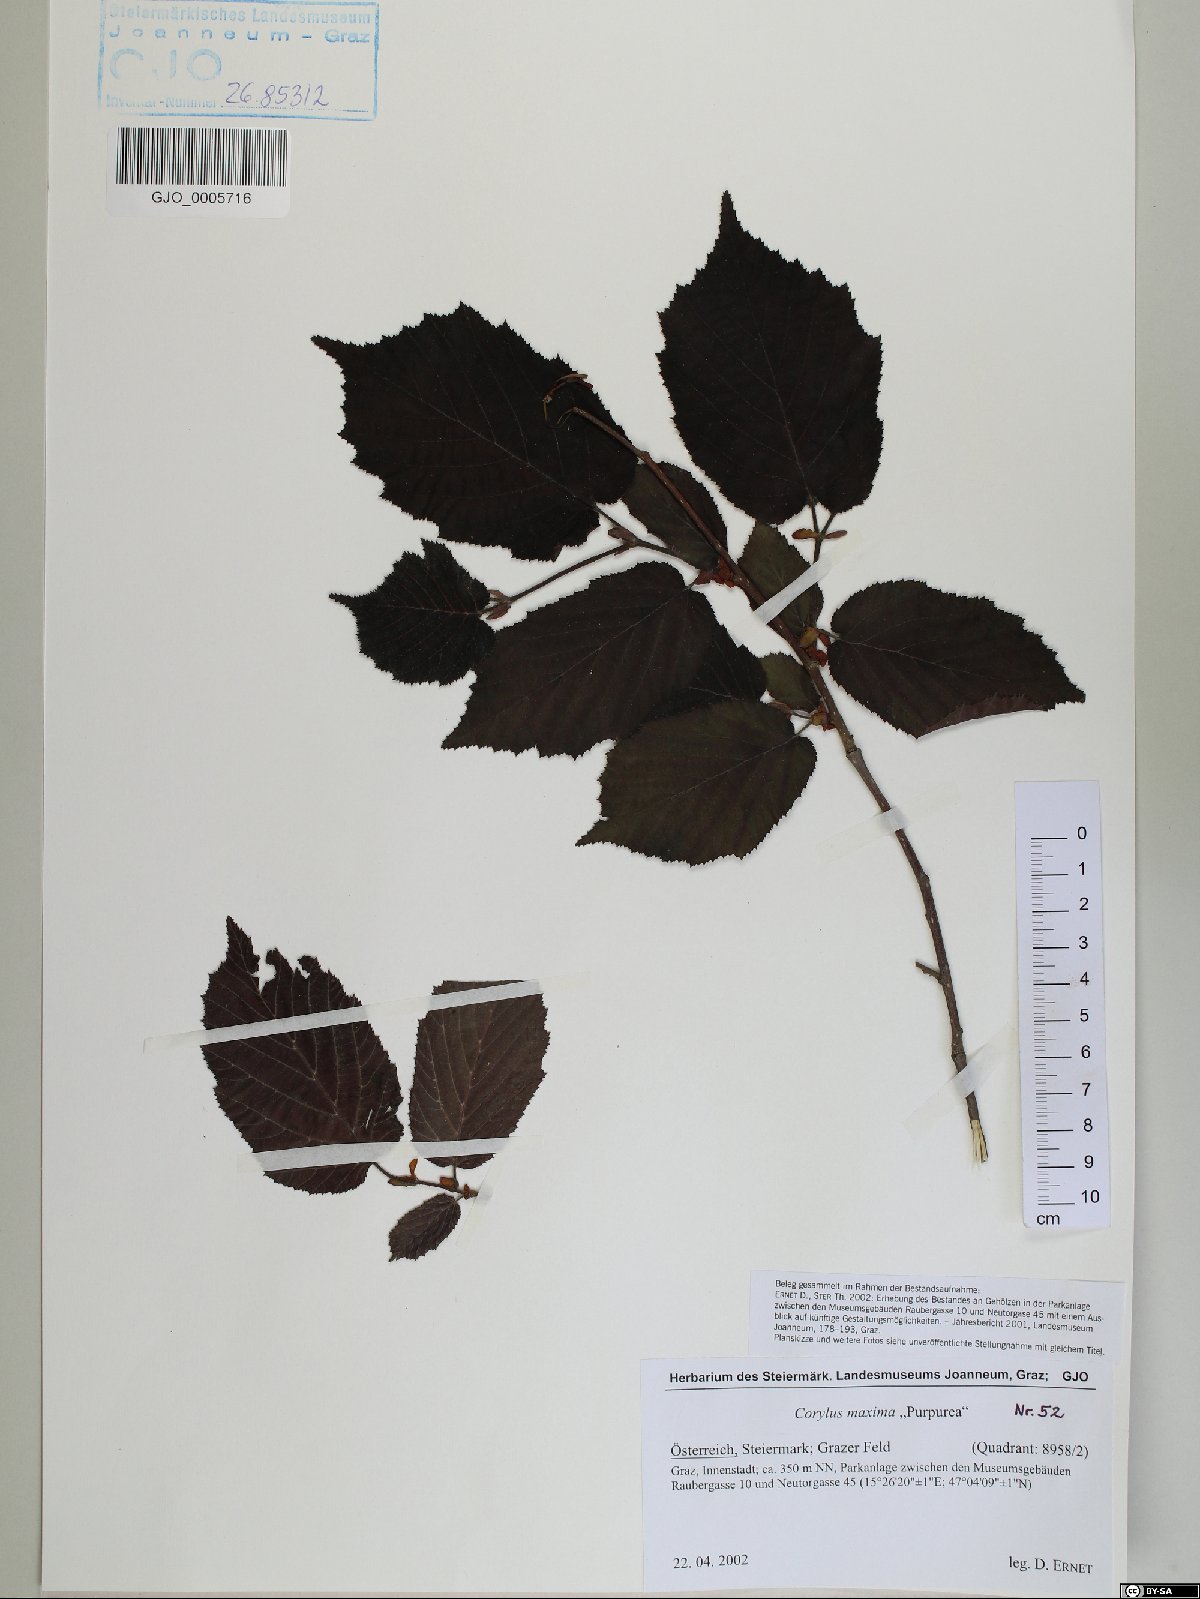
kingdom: Plantae
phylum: Tracheophyta
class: Magnoliopsida
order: Fagales
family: Betulaceae
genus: Corylus
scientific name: Corylus maxima
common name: Filbert
